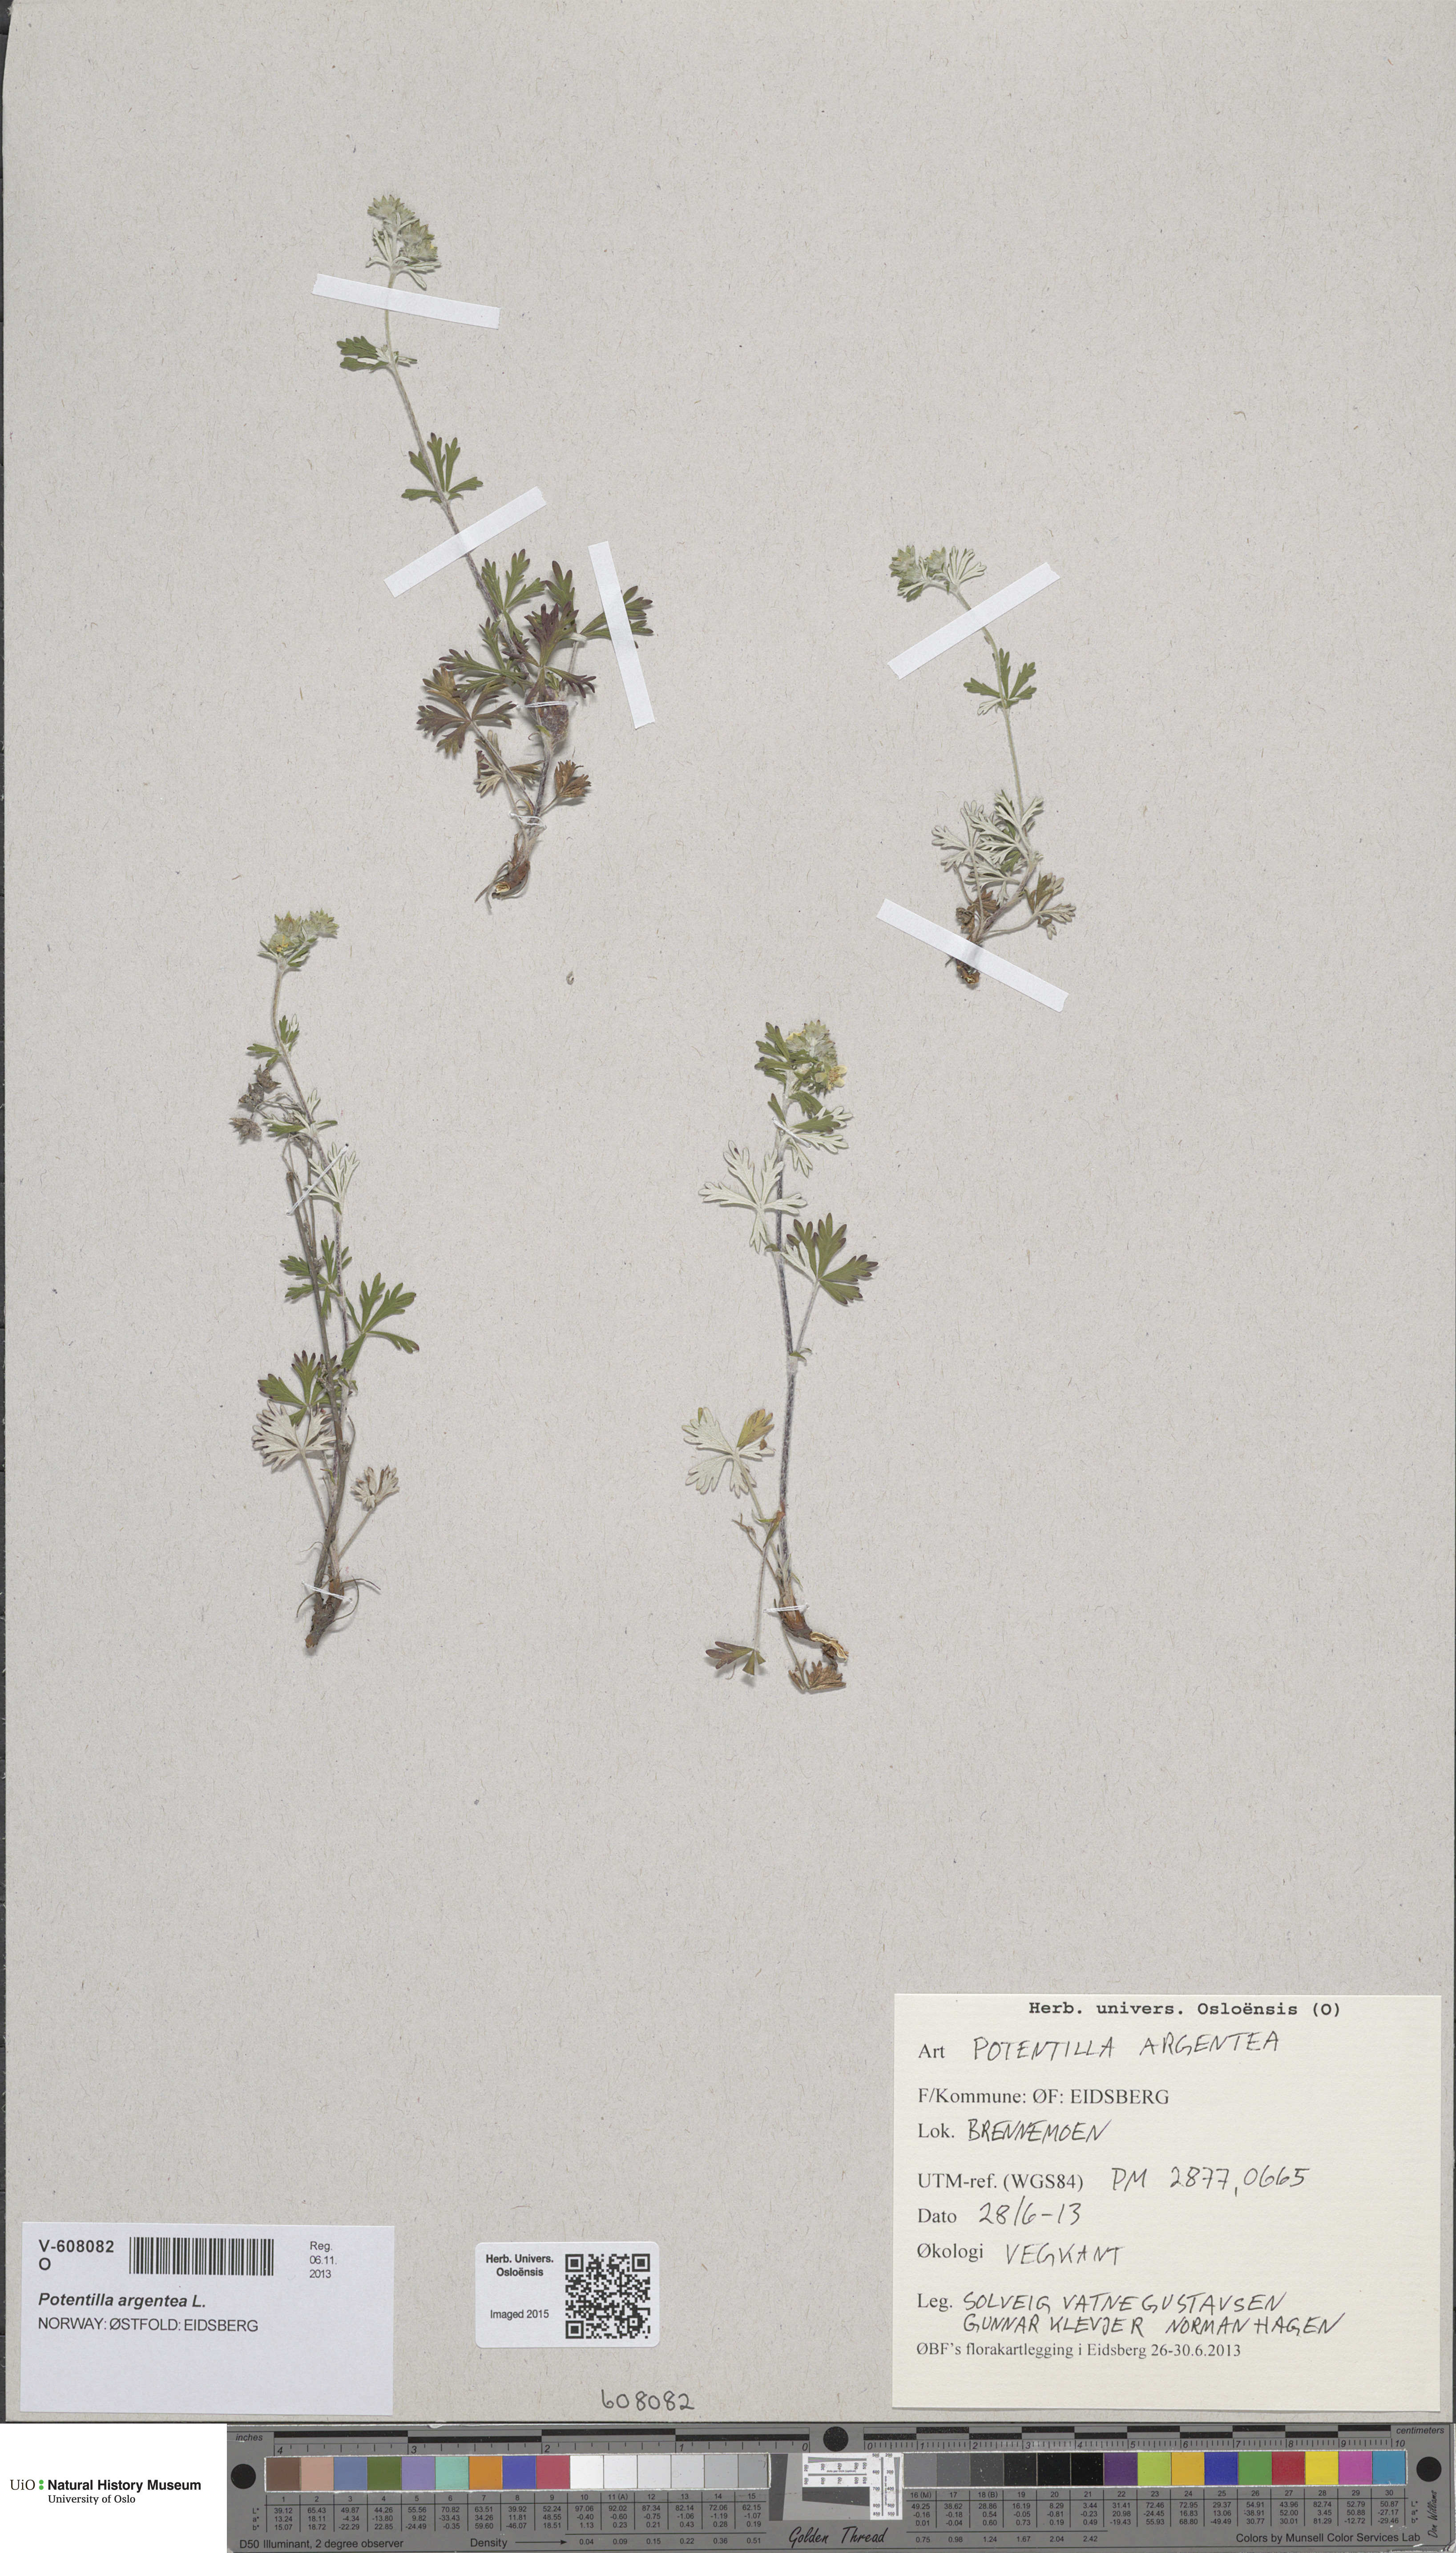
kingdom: Plantae
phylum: Tracheophyta
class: Magnoliopsida
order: Rosales
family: Rosaceae
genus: Potentilla
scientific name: Potentilla argentea
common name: Hoary cinquefoil
